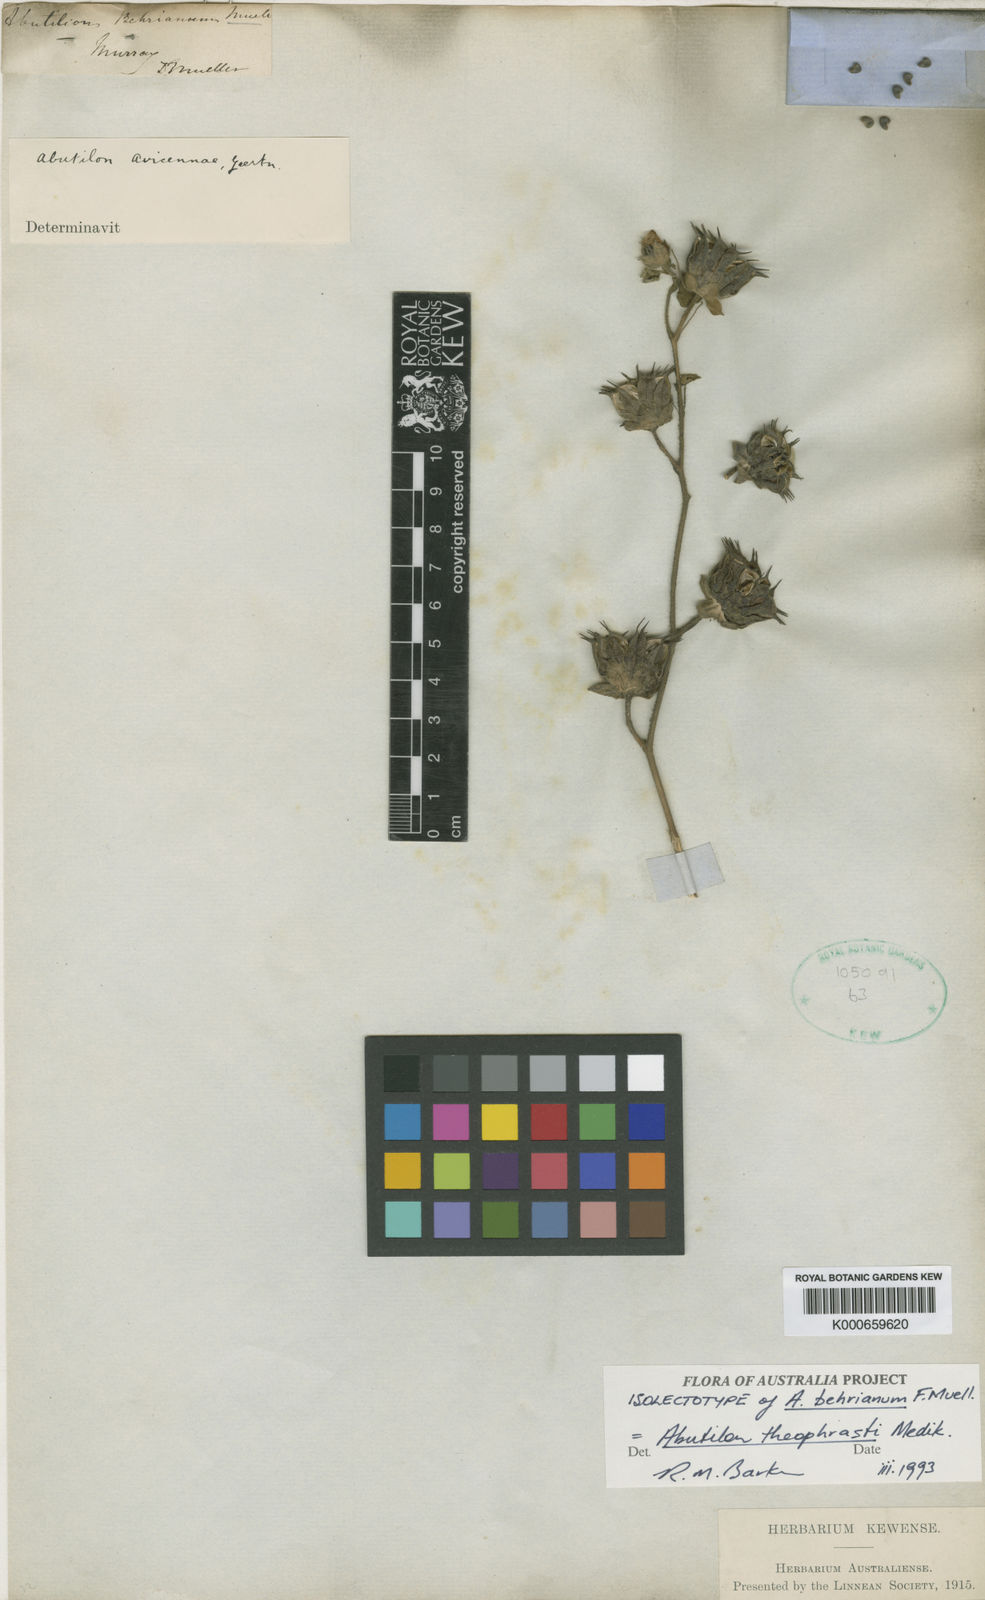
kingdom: Plantae
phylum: Tracheophyta
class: Magnoliopsida
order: Malvales
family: Malvaceae
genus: Abutilon
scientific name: Abutilon theophrasti
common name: Velvetleaf
